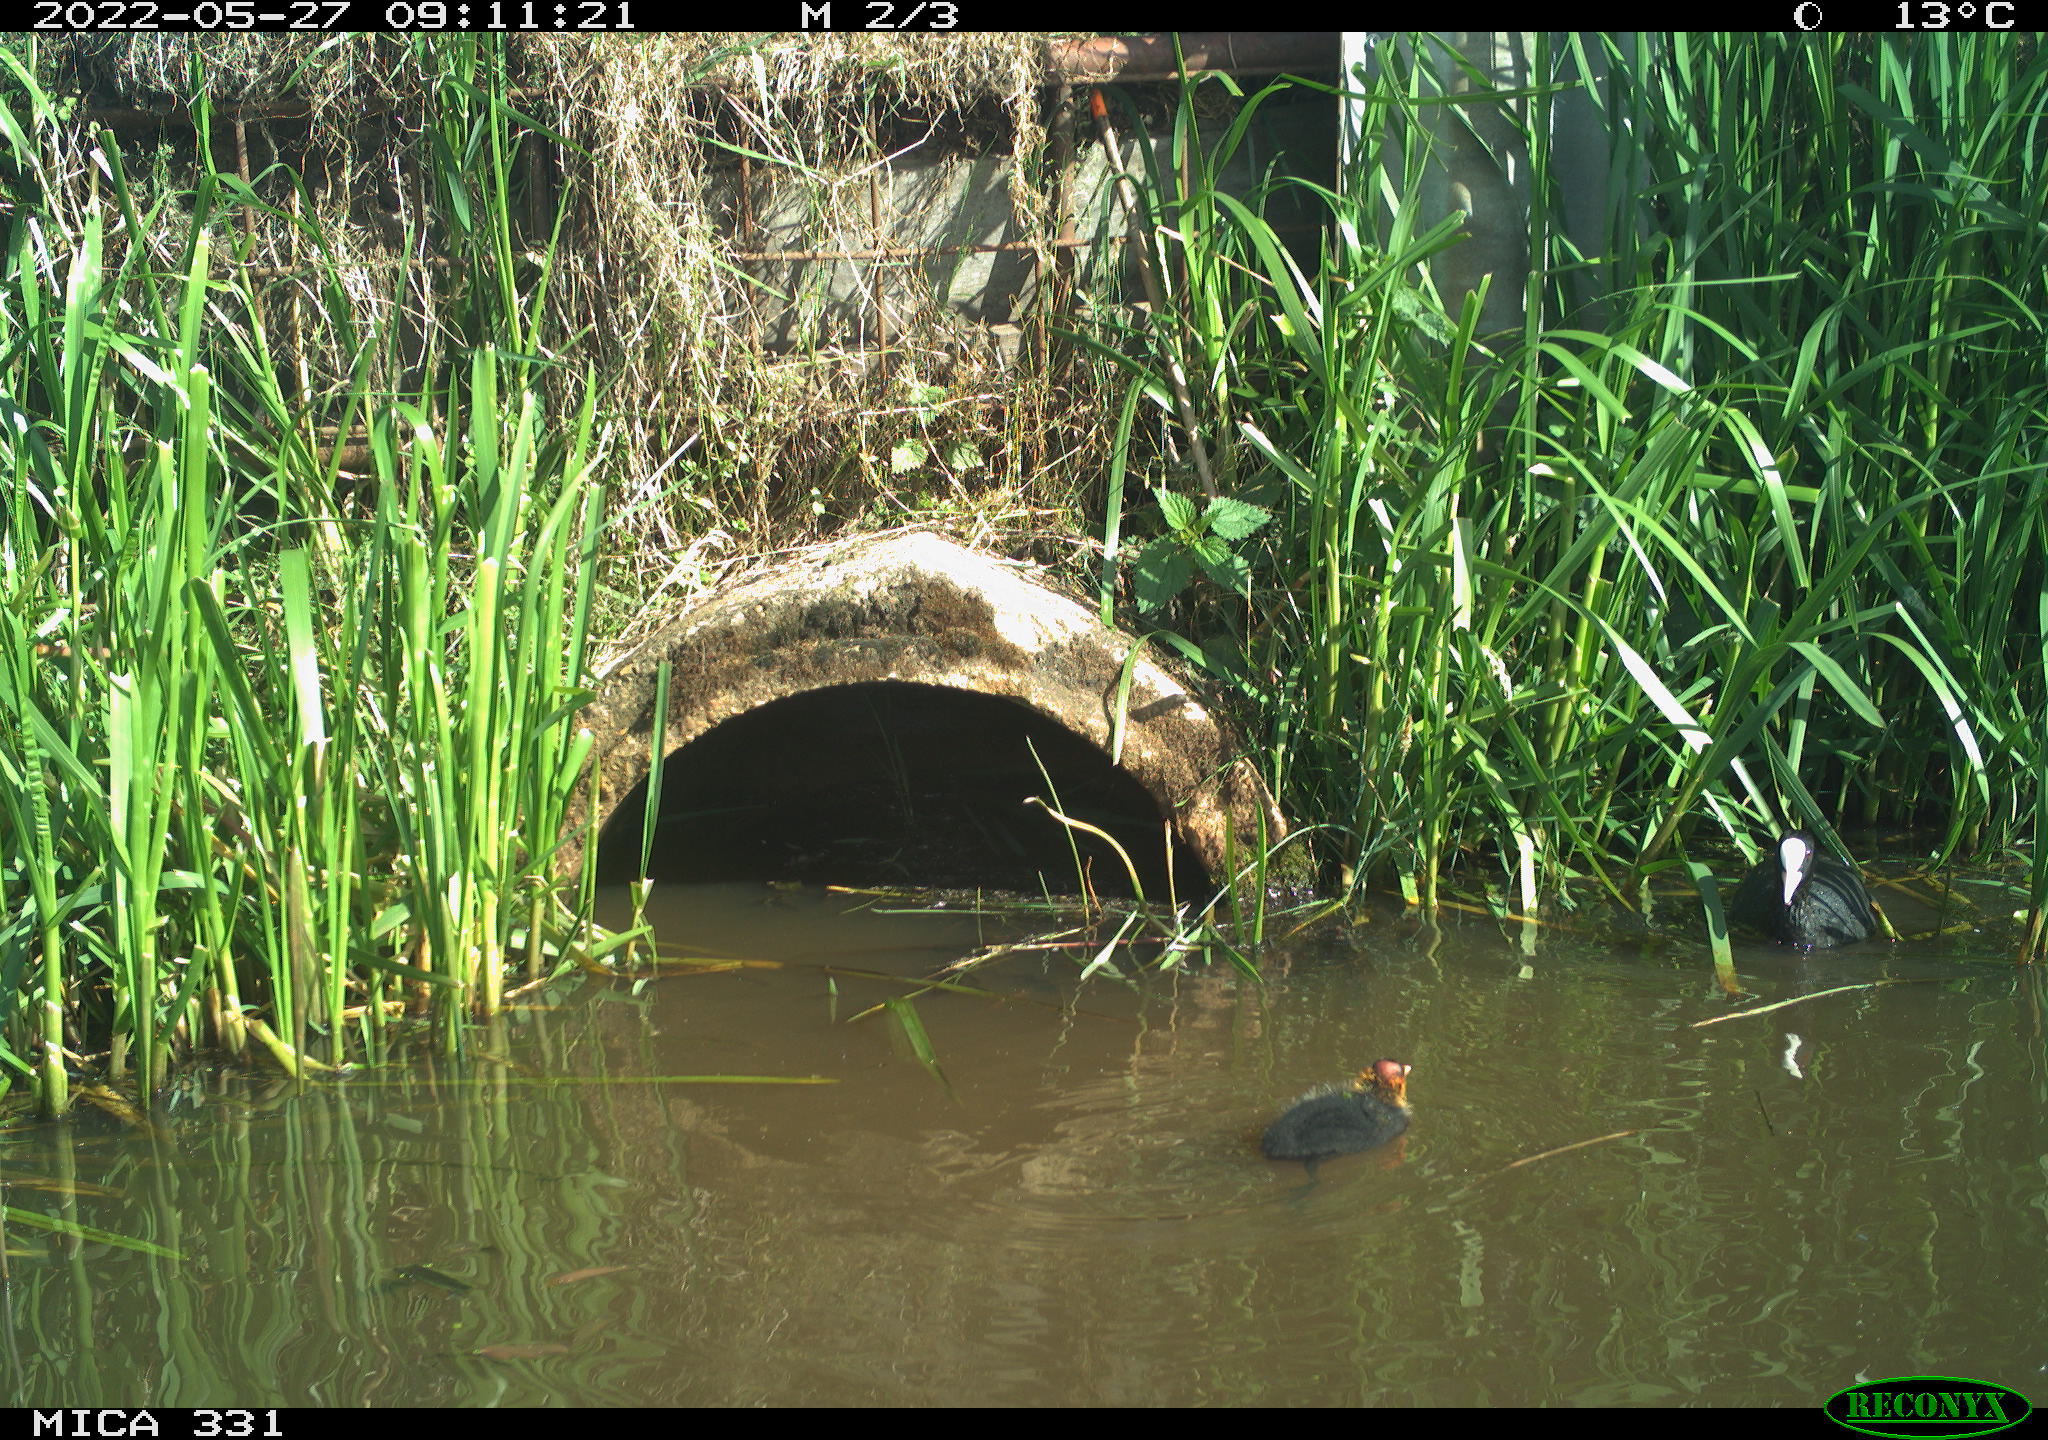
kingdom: Animalia
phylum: Chordata
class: Aves
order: Gruiformes
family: Rallidae
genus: Fulica
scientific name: Fulica atra
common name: Eurasian coot
